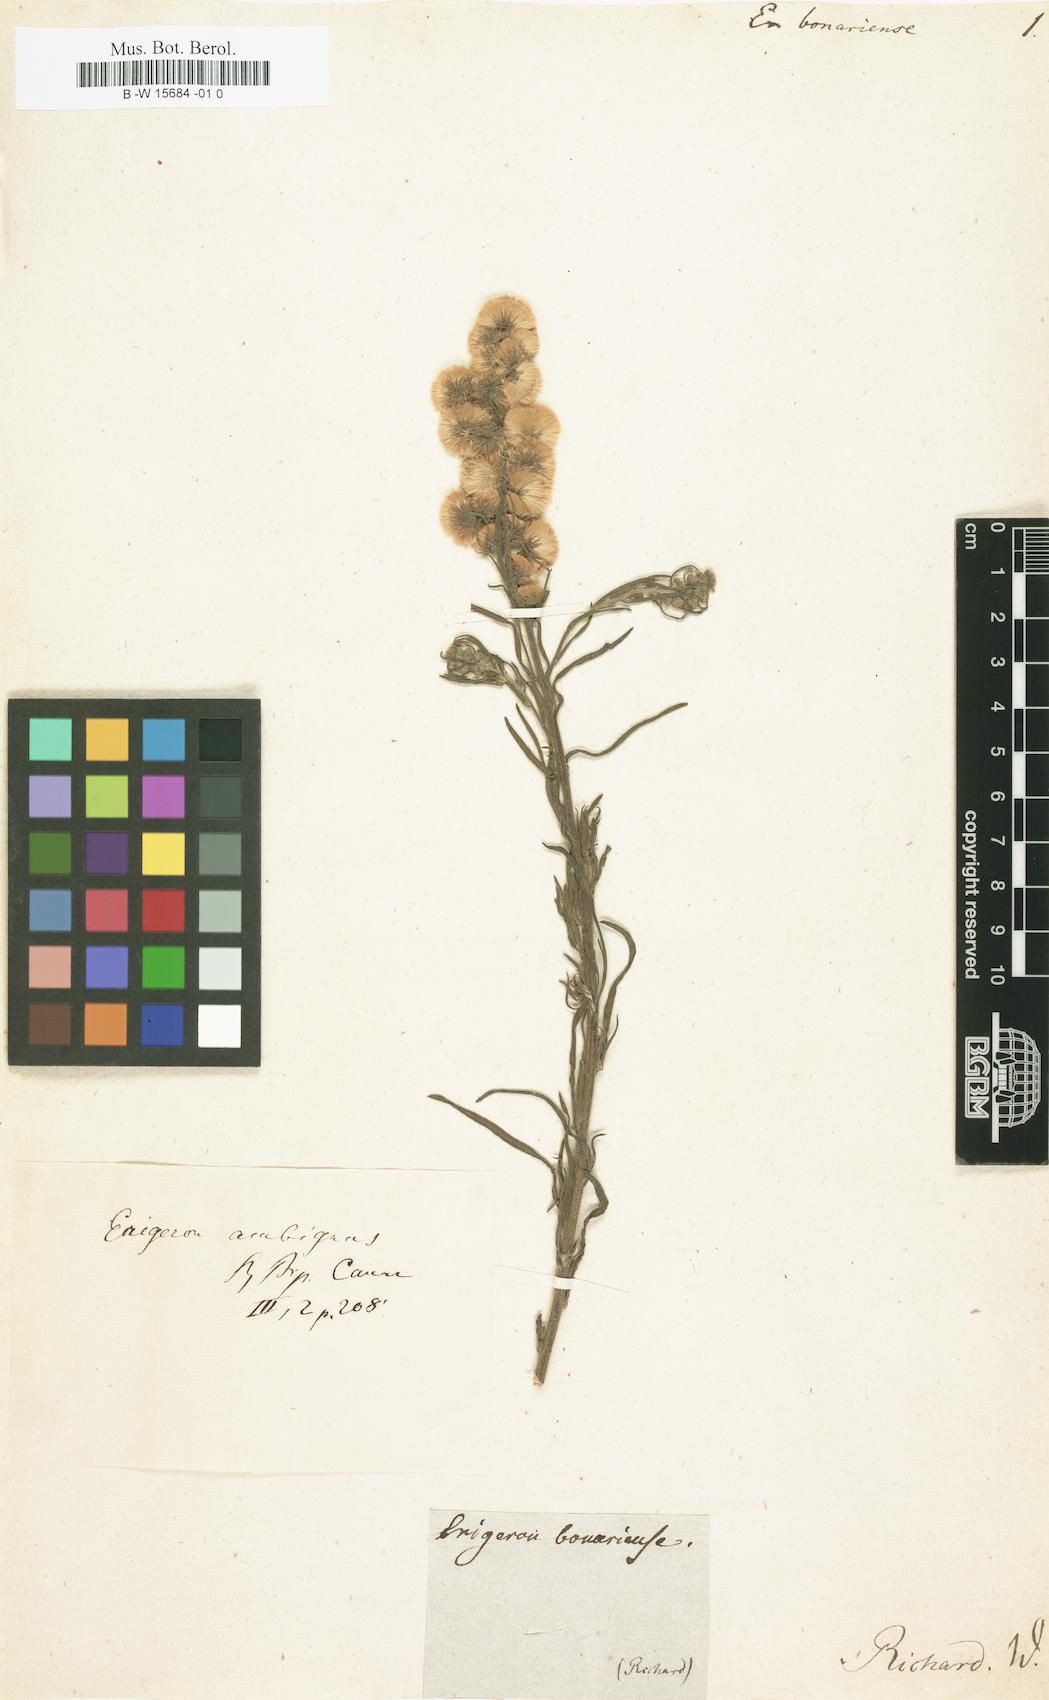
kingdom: Plantae
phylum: Tracheophyta
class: Magnoliopsida
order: Asterales
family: Asteraceae
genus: Erigeron
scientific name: Erigeron bonariensis
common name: Argentine fleabane
